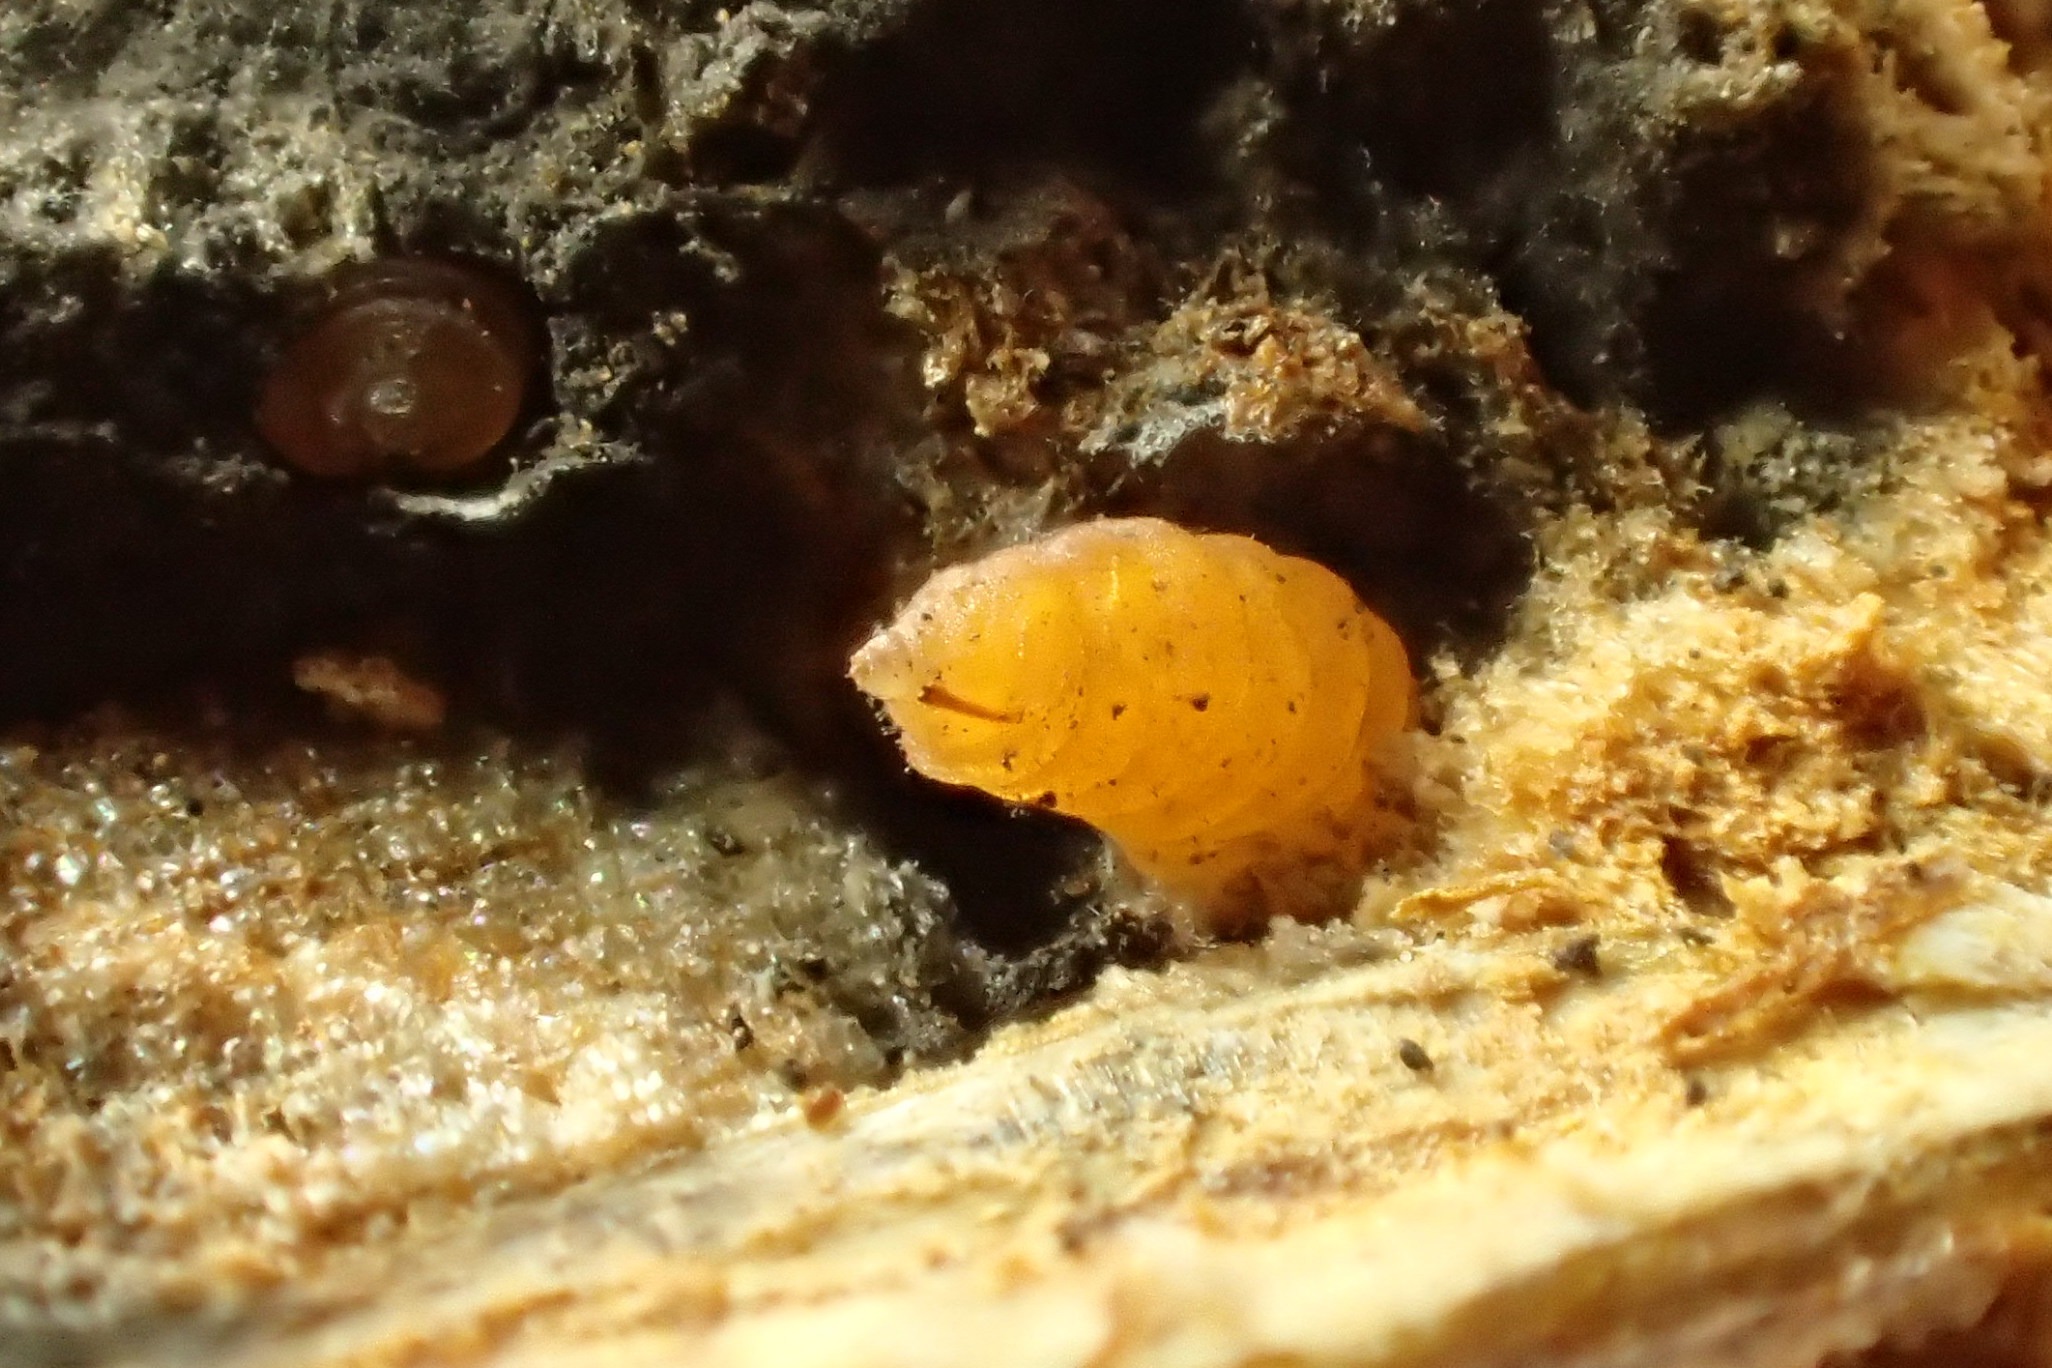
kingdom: Animalia
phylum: Arthropoda
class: Insecta
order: Diptera
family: Cecidomyiidae
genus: Lasioptera
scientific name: Lasioptera rubi
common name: Hindbærstængelgalmyg
